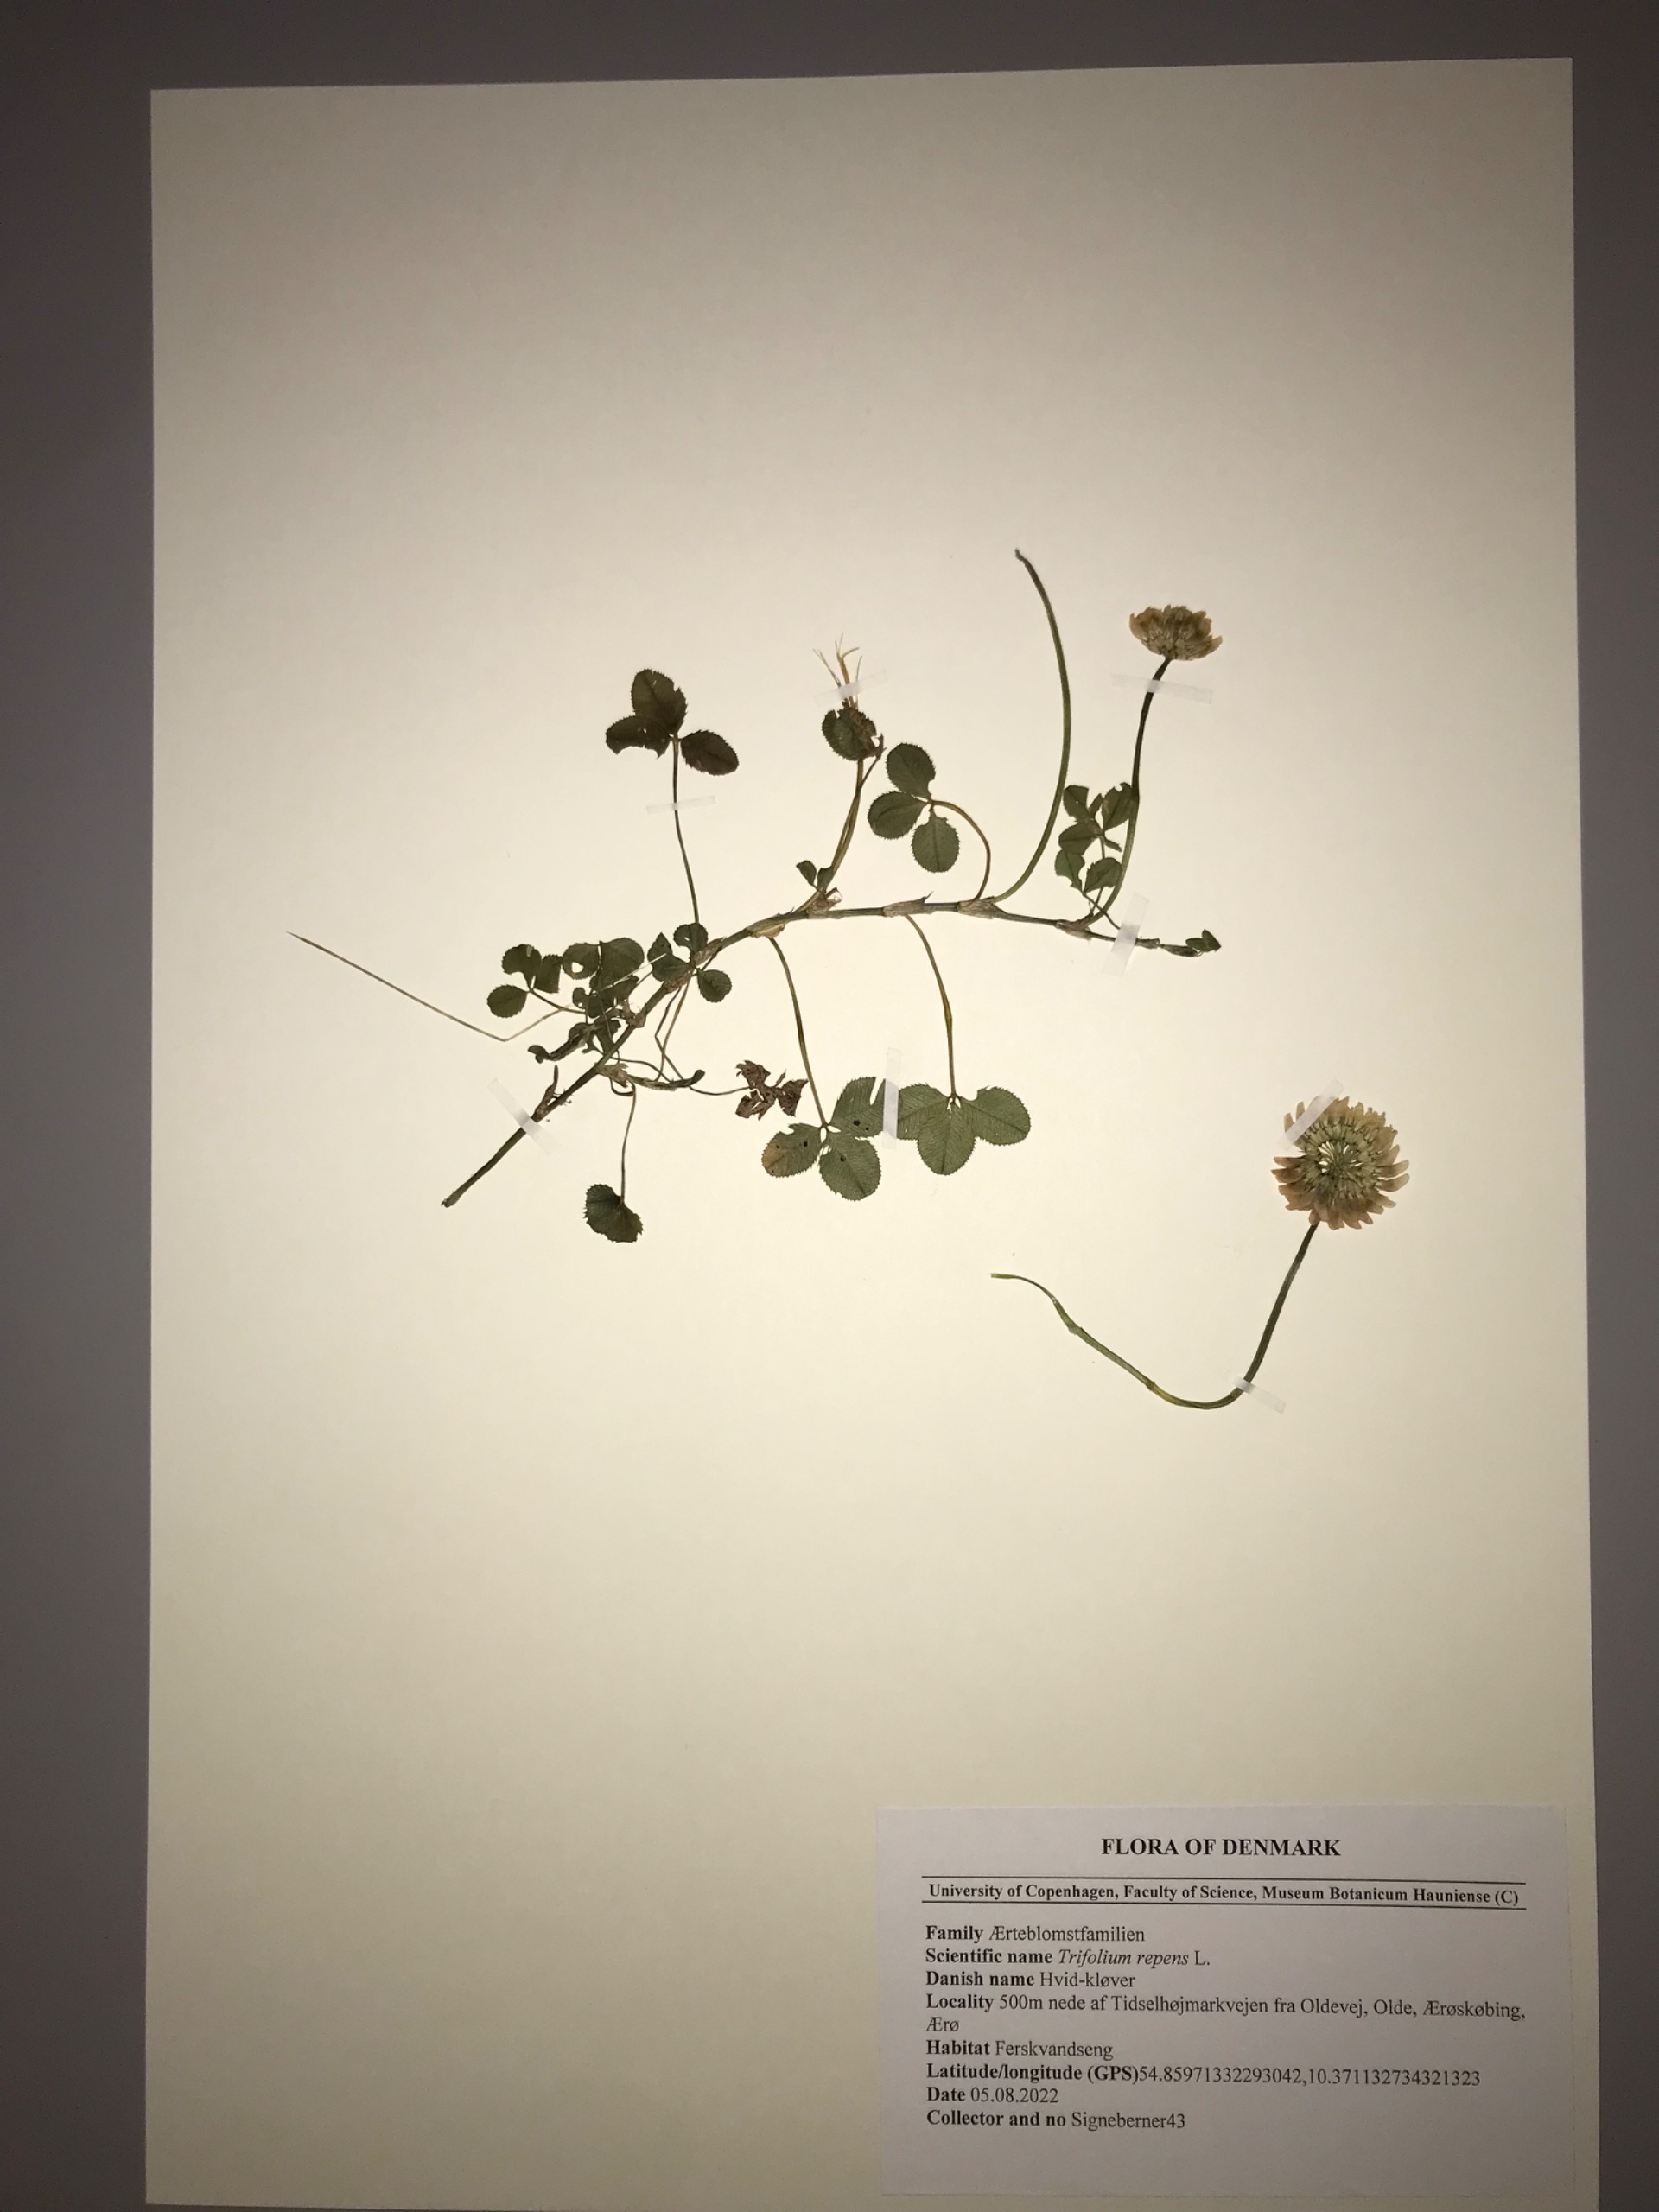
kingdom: Plantae
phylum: Tracheophyta
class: Magnoliopsida
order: Fabales
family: Fabaceae
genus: Trifolium
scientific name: Trifolium repens
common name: Hvid-kløver
